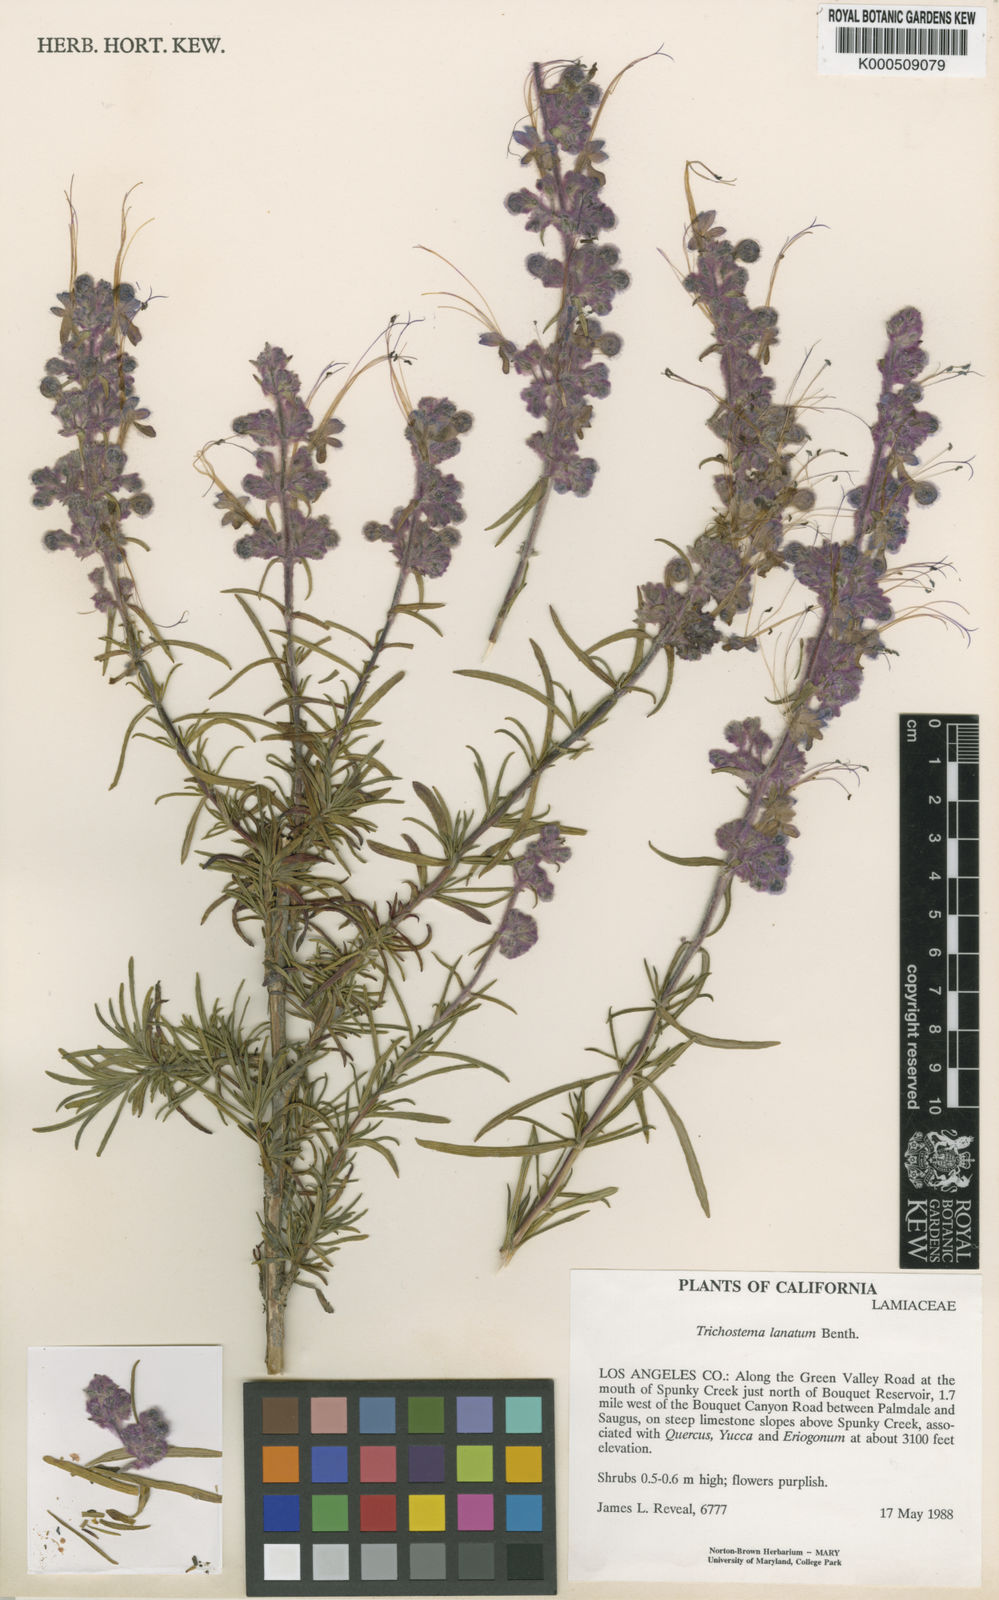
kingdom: Plantae
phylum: Tracheophyta
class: Magnoliopsida
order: Lamiales
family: Lamiaceae
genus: Trichostema
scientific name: Trichostema lanatum
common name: Woolly bluecurls
